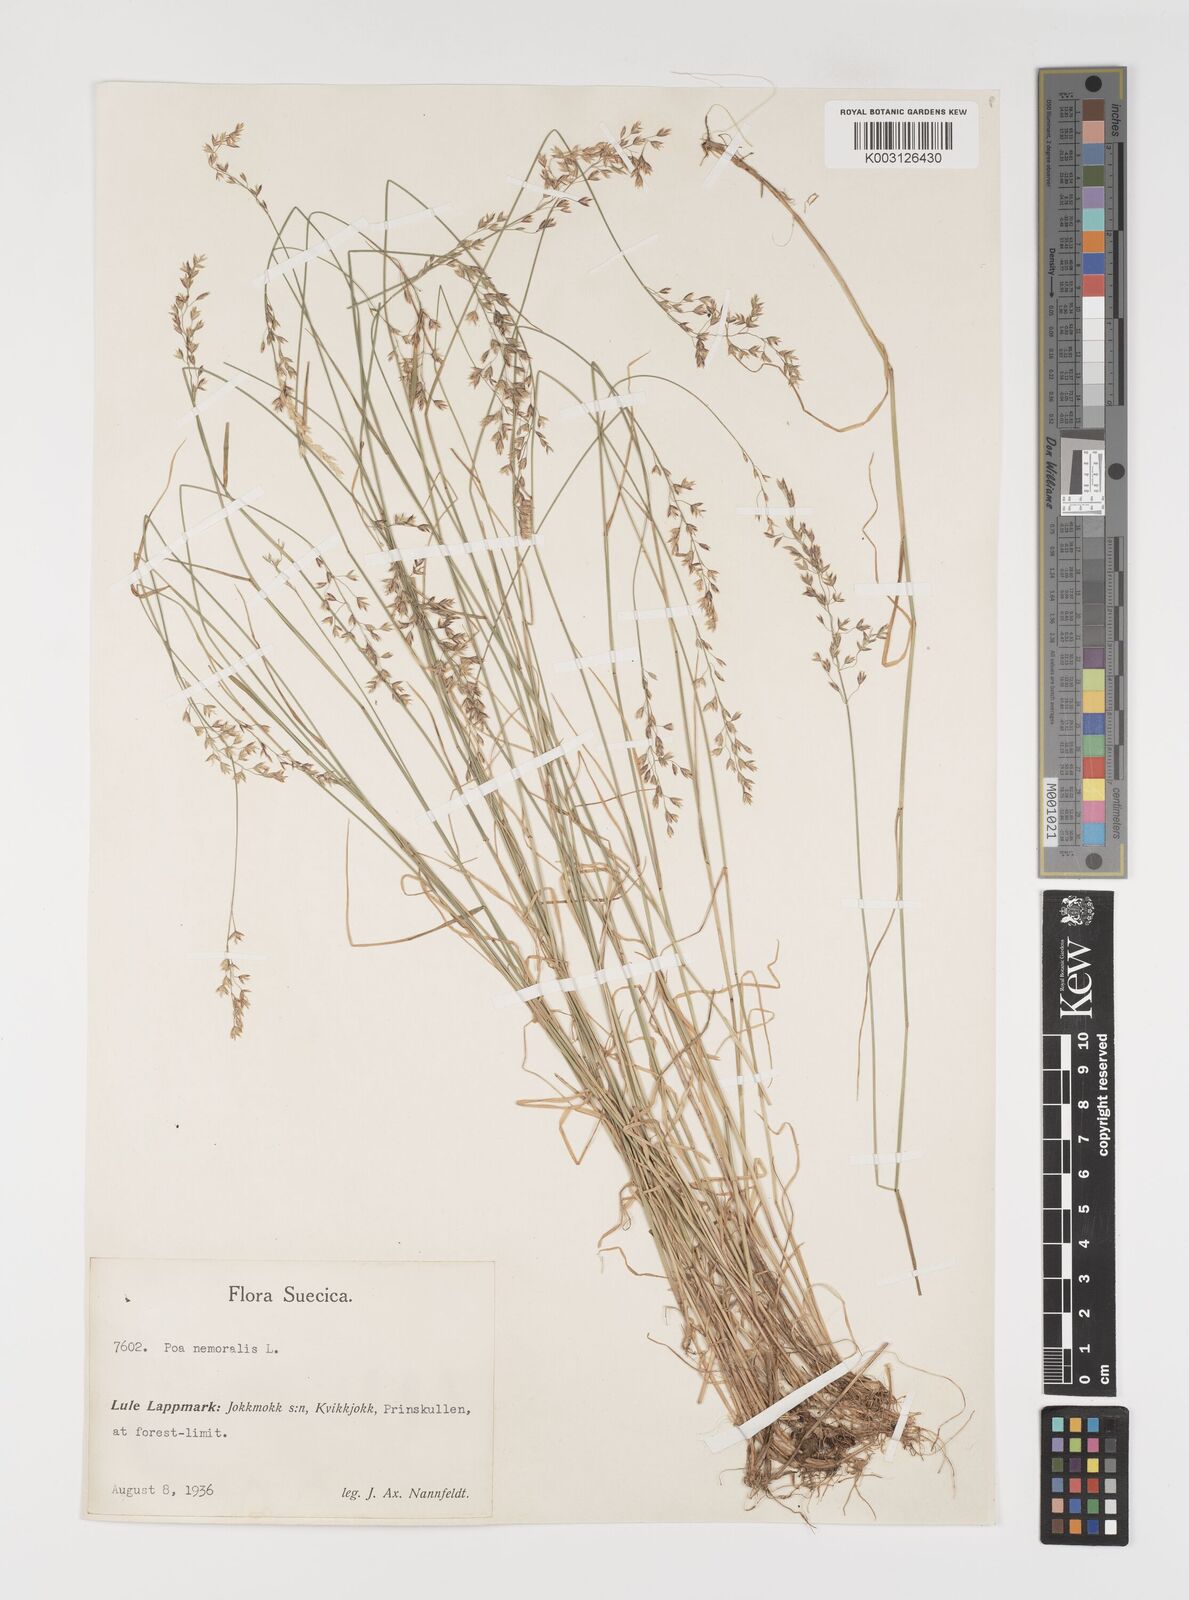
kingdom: Plantae
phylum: Tracheophyta
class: Liliopsida
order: Poales
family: Poaceae
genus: Poa
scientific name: Poa nemoralis
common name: Wood bluegrass
